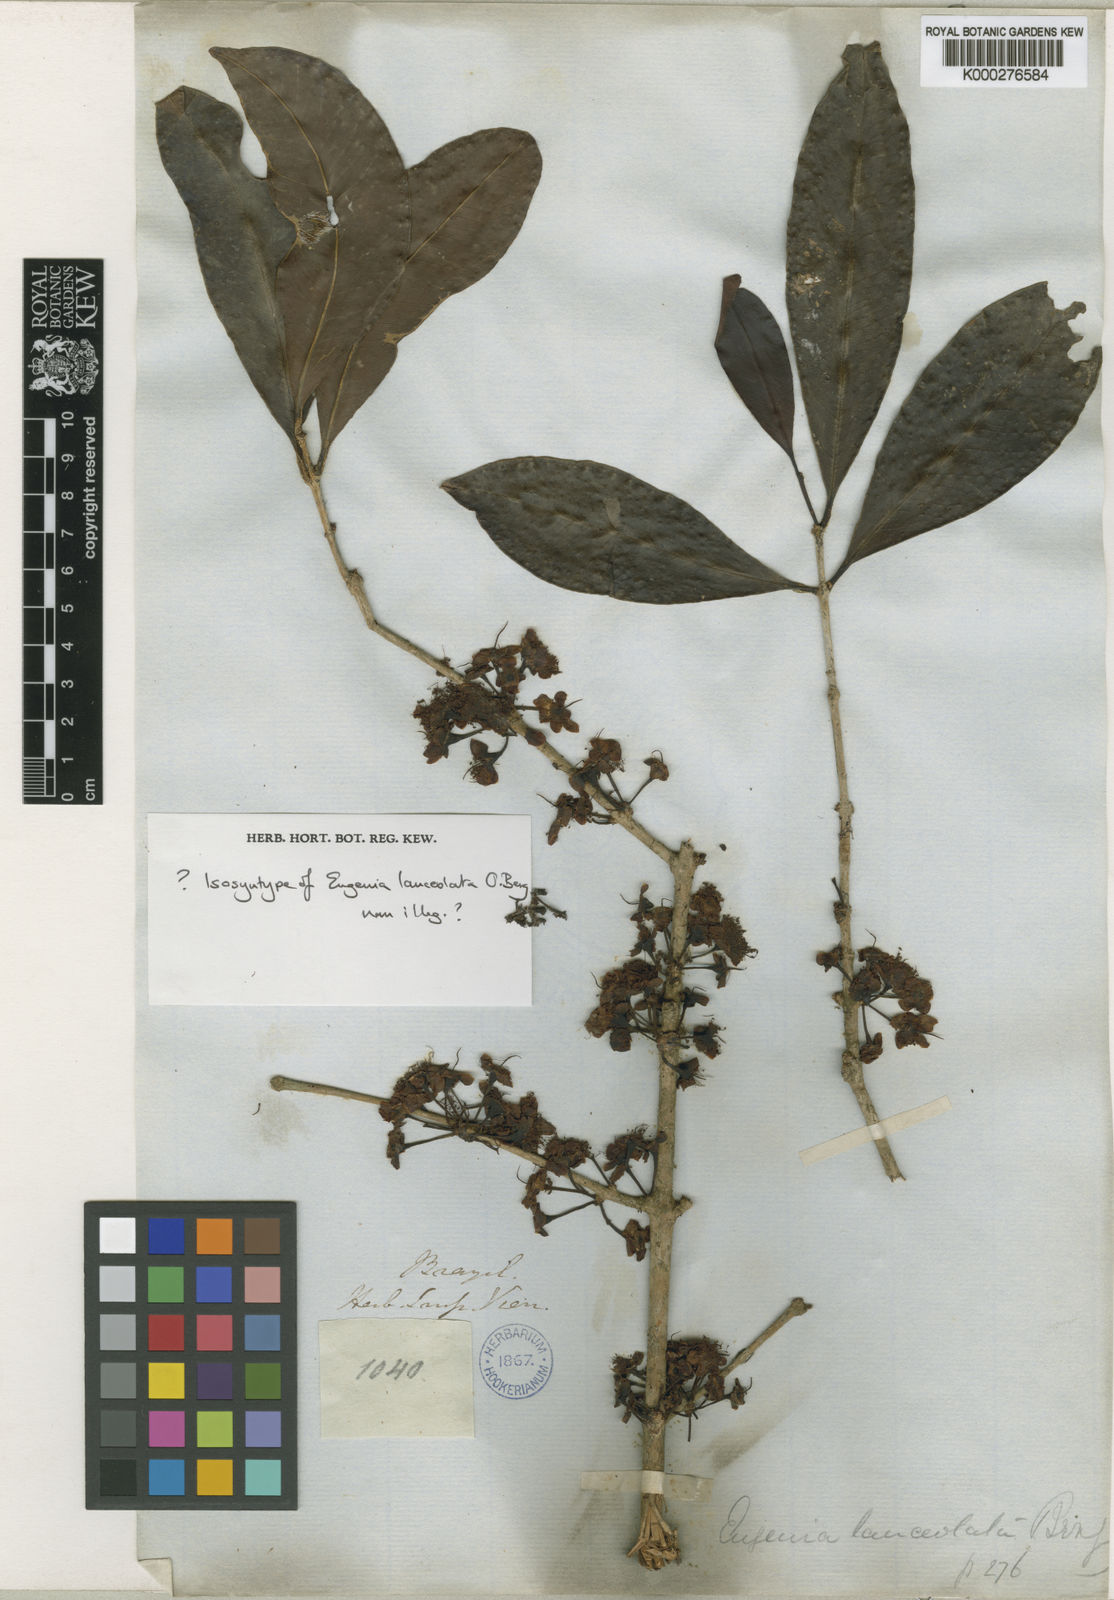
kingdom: Plantae
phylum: Tracheophyta
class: Magnoliopsida
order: Myrtales
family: Myrtaceae
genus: Eugenia
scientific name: Eugenia fusca
